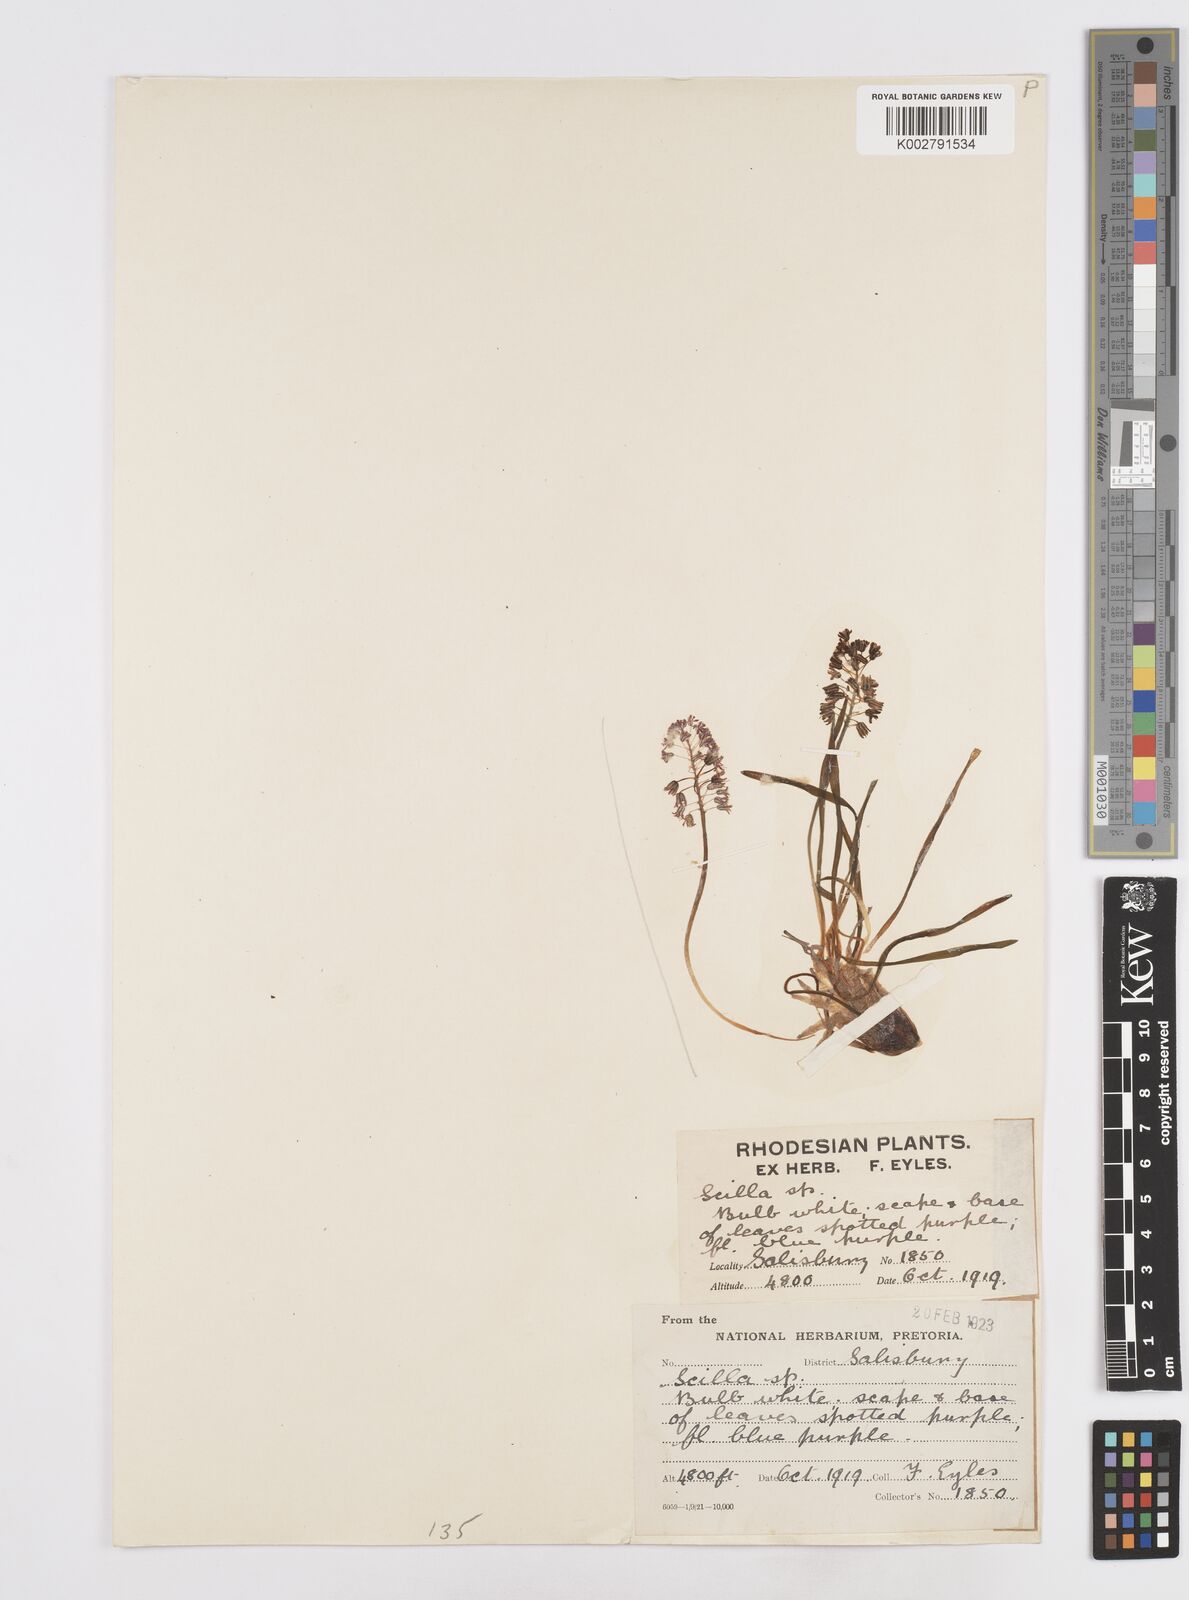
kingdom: Plantae
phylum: Tracheophyta
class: Liliopsida
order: Asparagales
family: Asparagaceae
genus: Scilla
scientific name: Scilla
